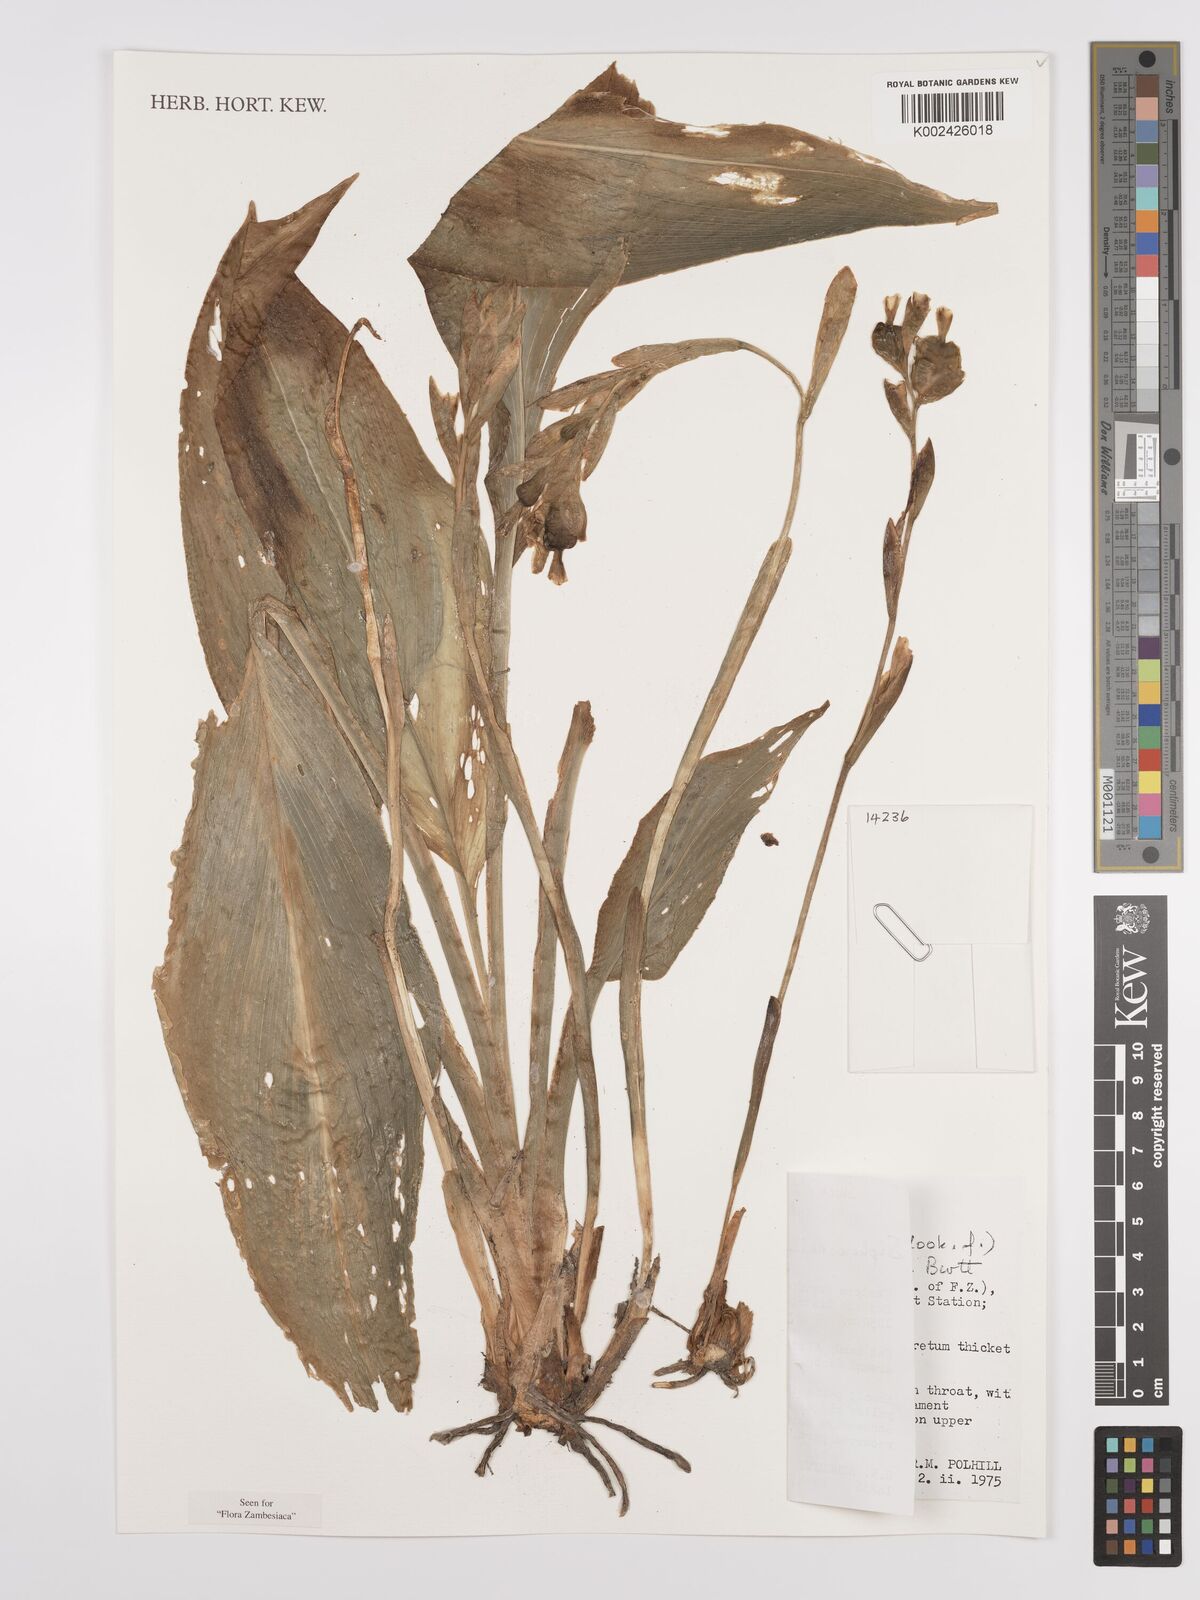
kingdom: Plantae
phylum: Tracheophyta
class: Liliopsida
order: Zingiberales
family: Zingiberaceae
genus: Siphonochilus
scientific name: Siphonochilus kirkii
